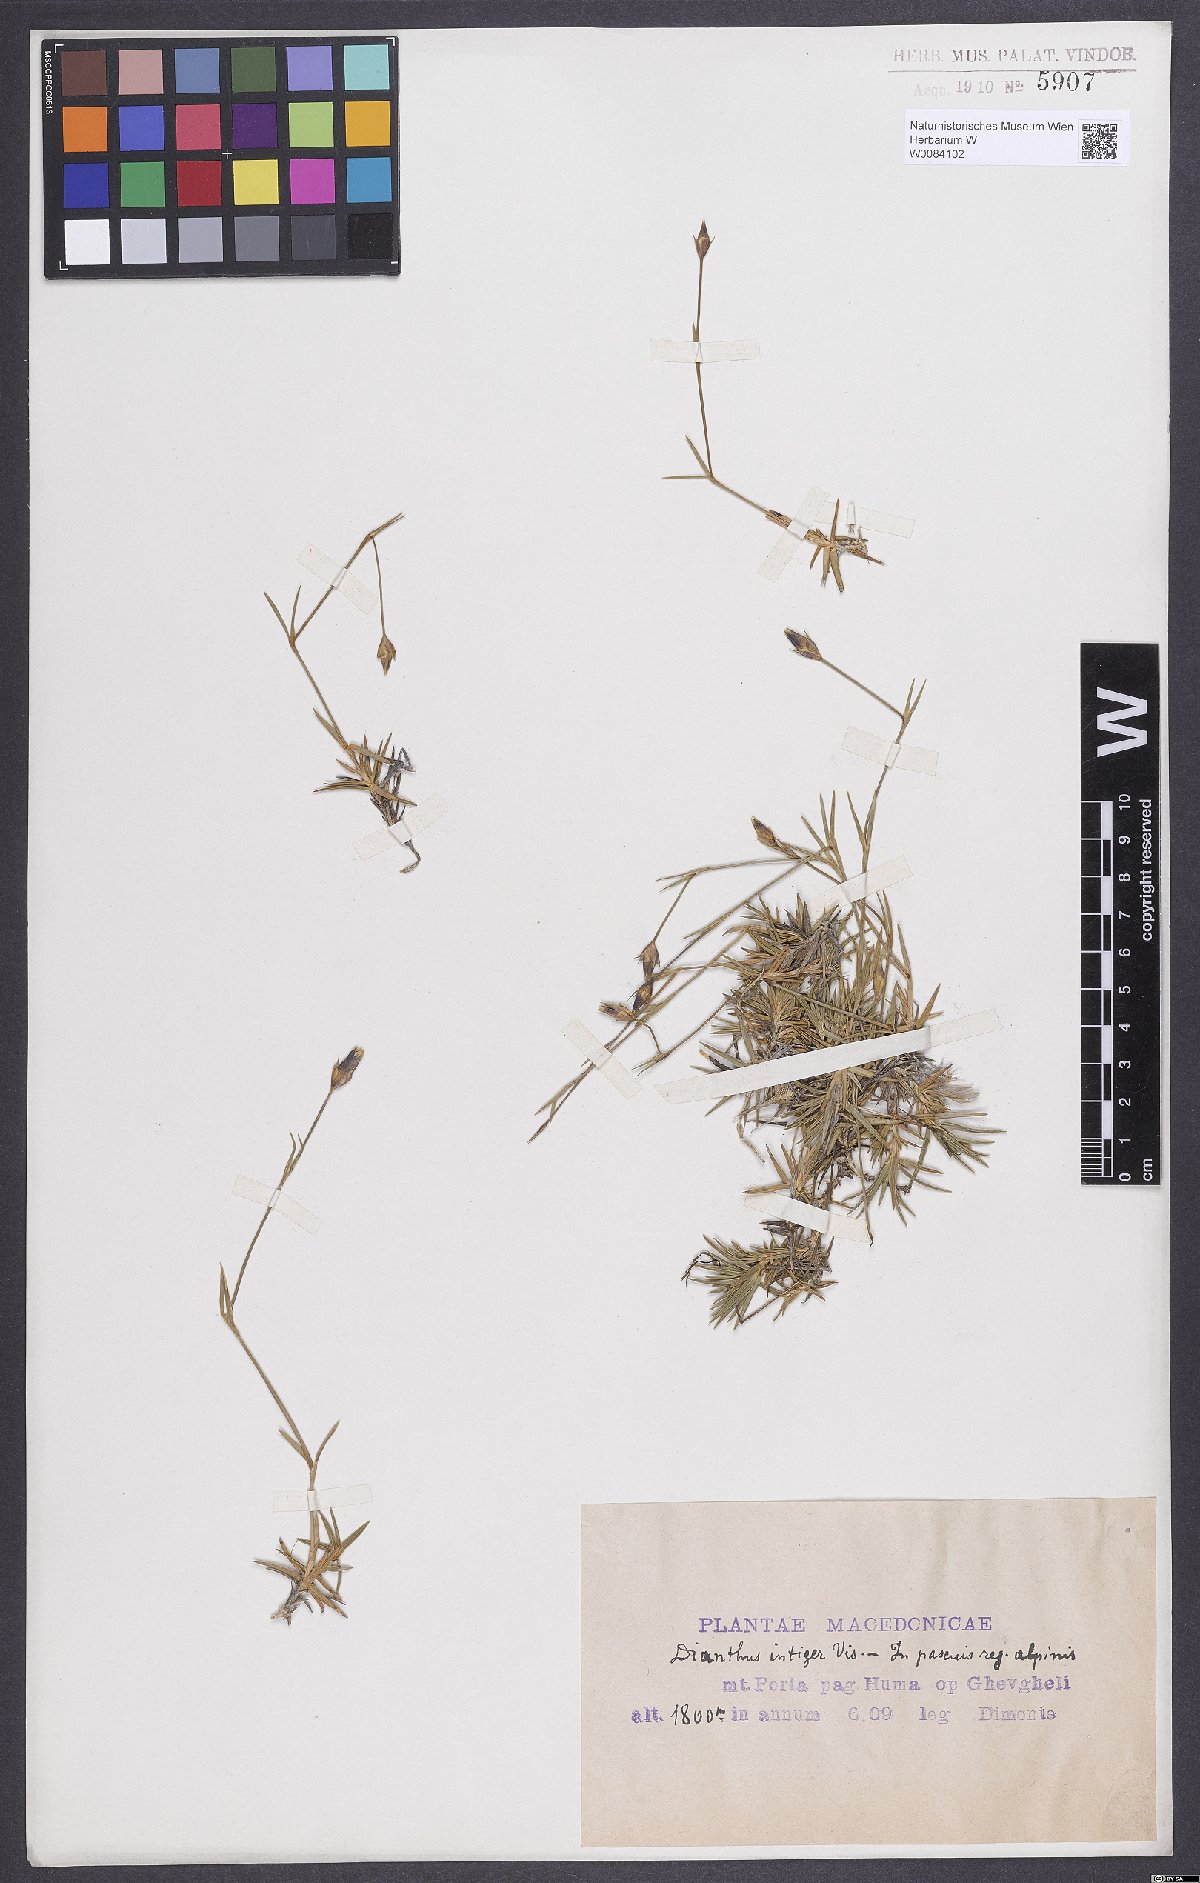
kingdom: Plantae
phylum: Tracheophyta
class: Magnoliopsida
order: Caryophyllales
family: Caryophyllaceae
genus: Dianthus
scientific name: Dianthus integer
